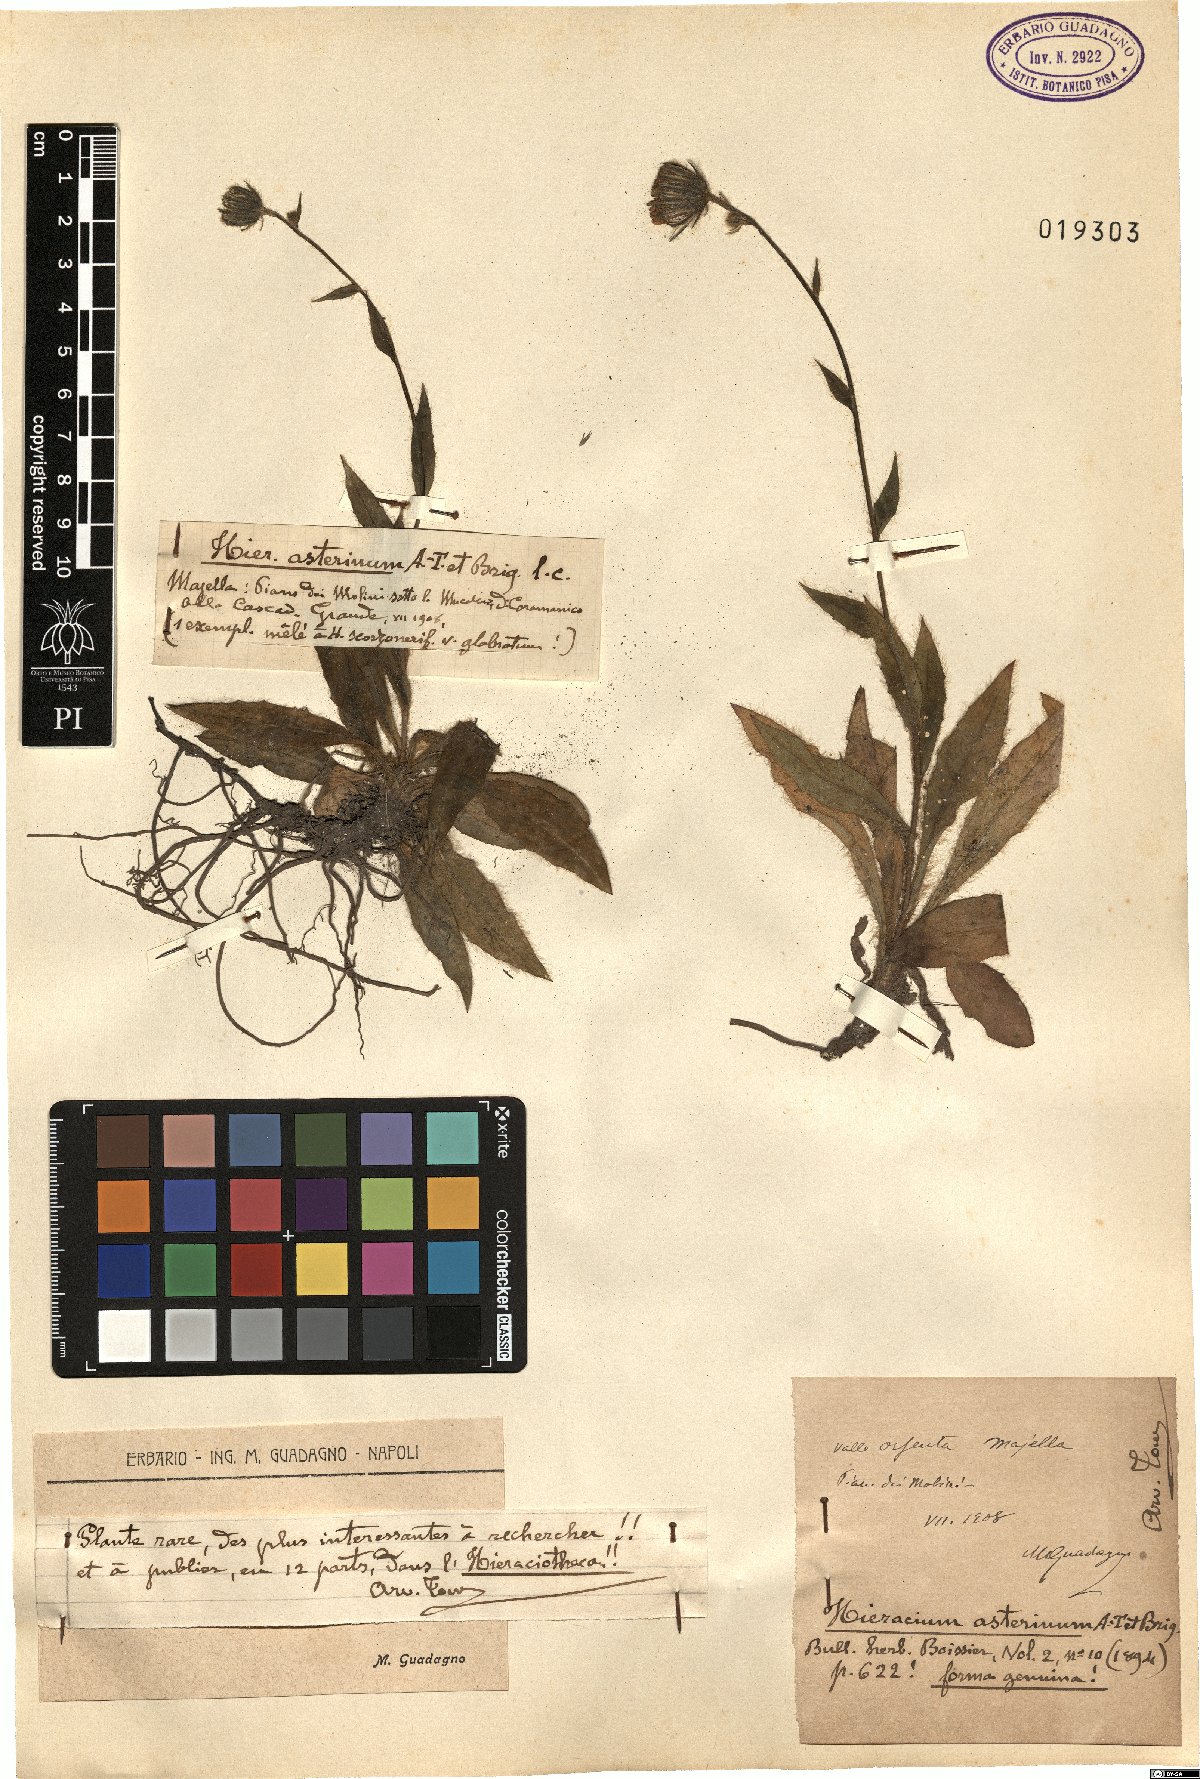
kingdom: Plantae
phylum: Tracheophyta
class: Magnoliopsida
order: Asterales
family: Asteraceae
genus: Hieracium
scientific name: Hieracium leucophaeum
